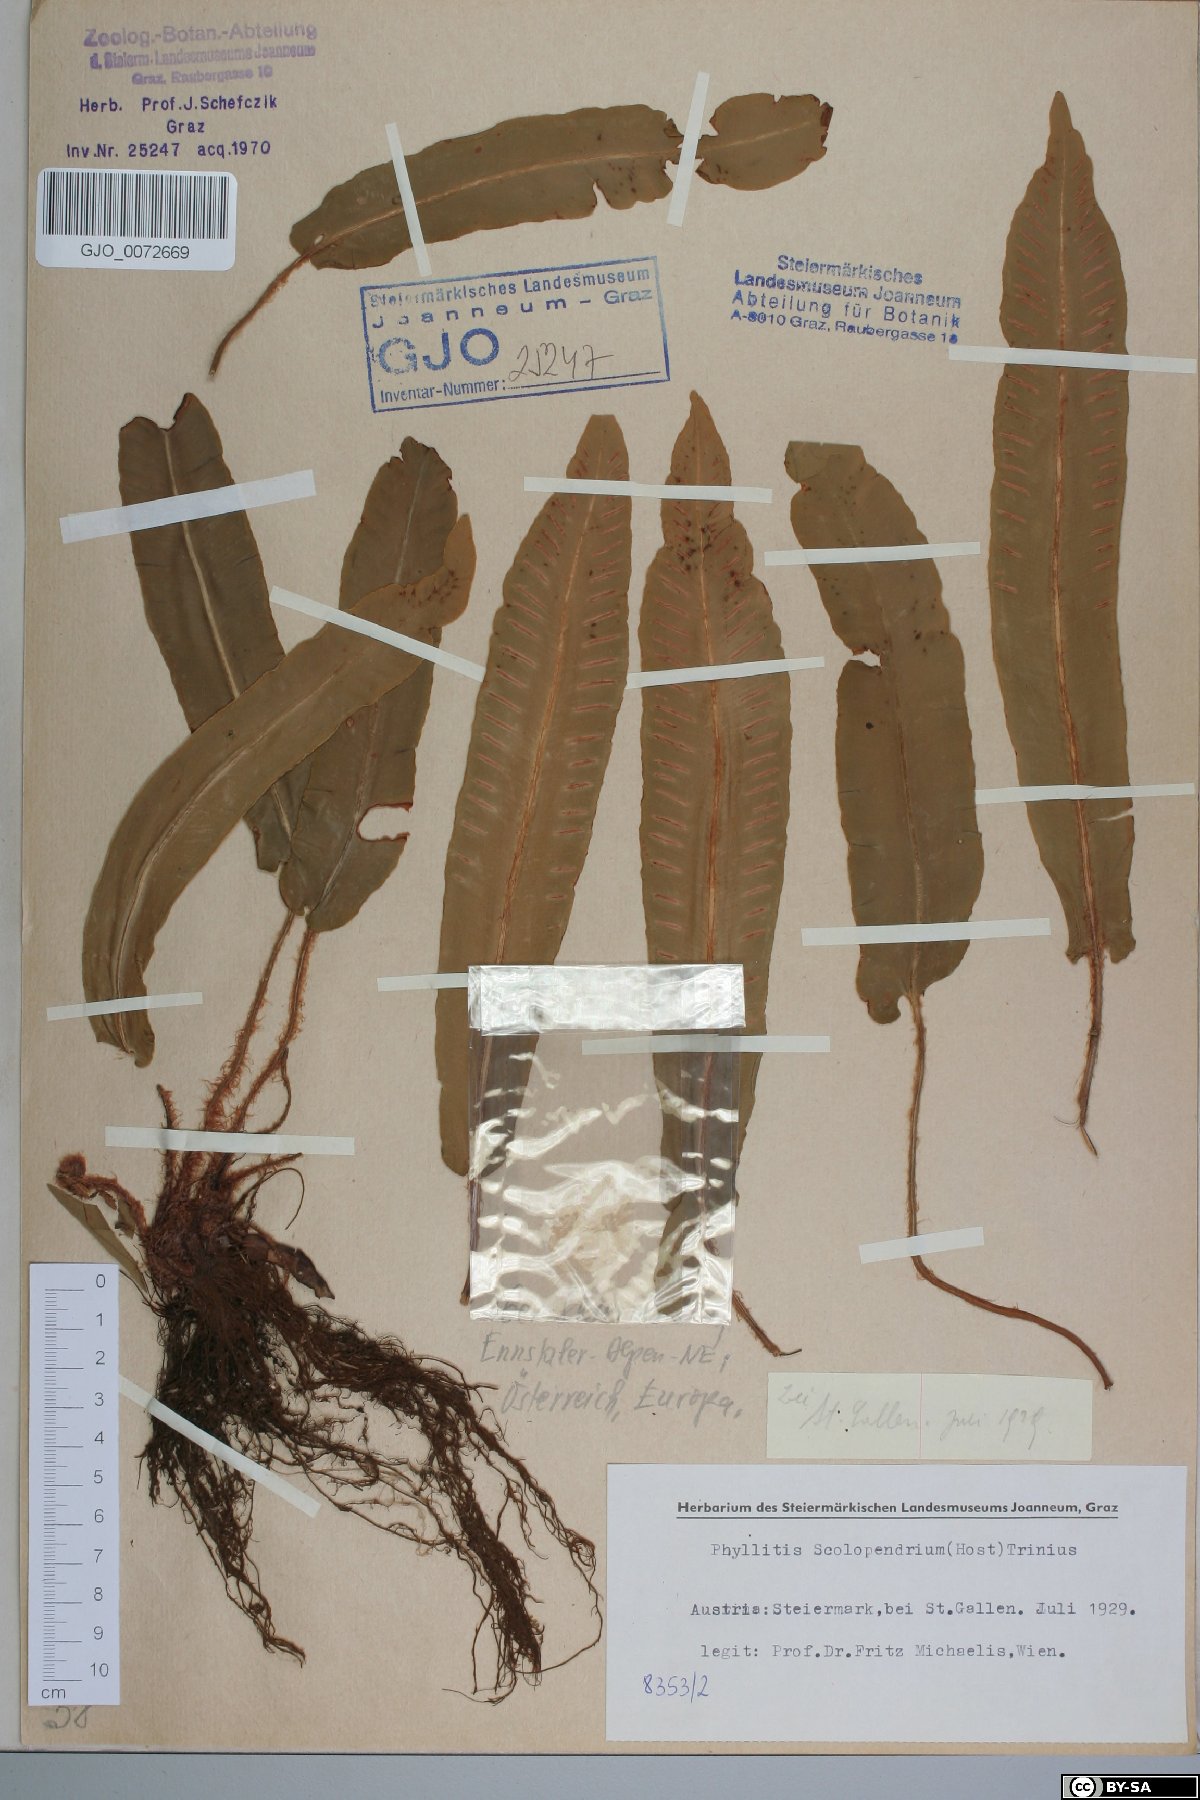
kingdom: Plantae
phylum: Tracheophyta
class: Polypodiopsida
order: Polypodiales
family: Aspleniaceae
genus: Asplenium
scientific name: Asplenium scolopendrium
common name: Hart's-tongue fern
